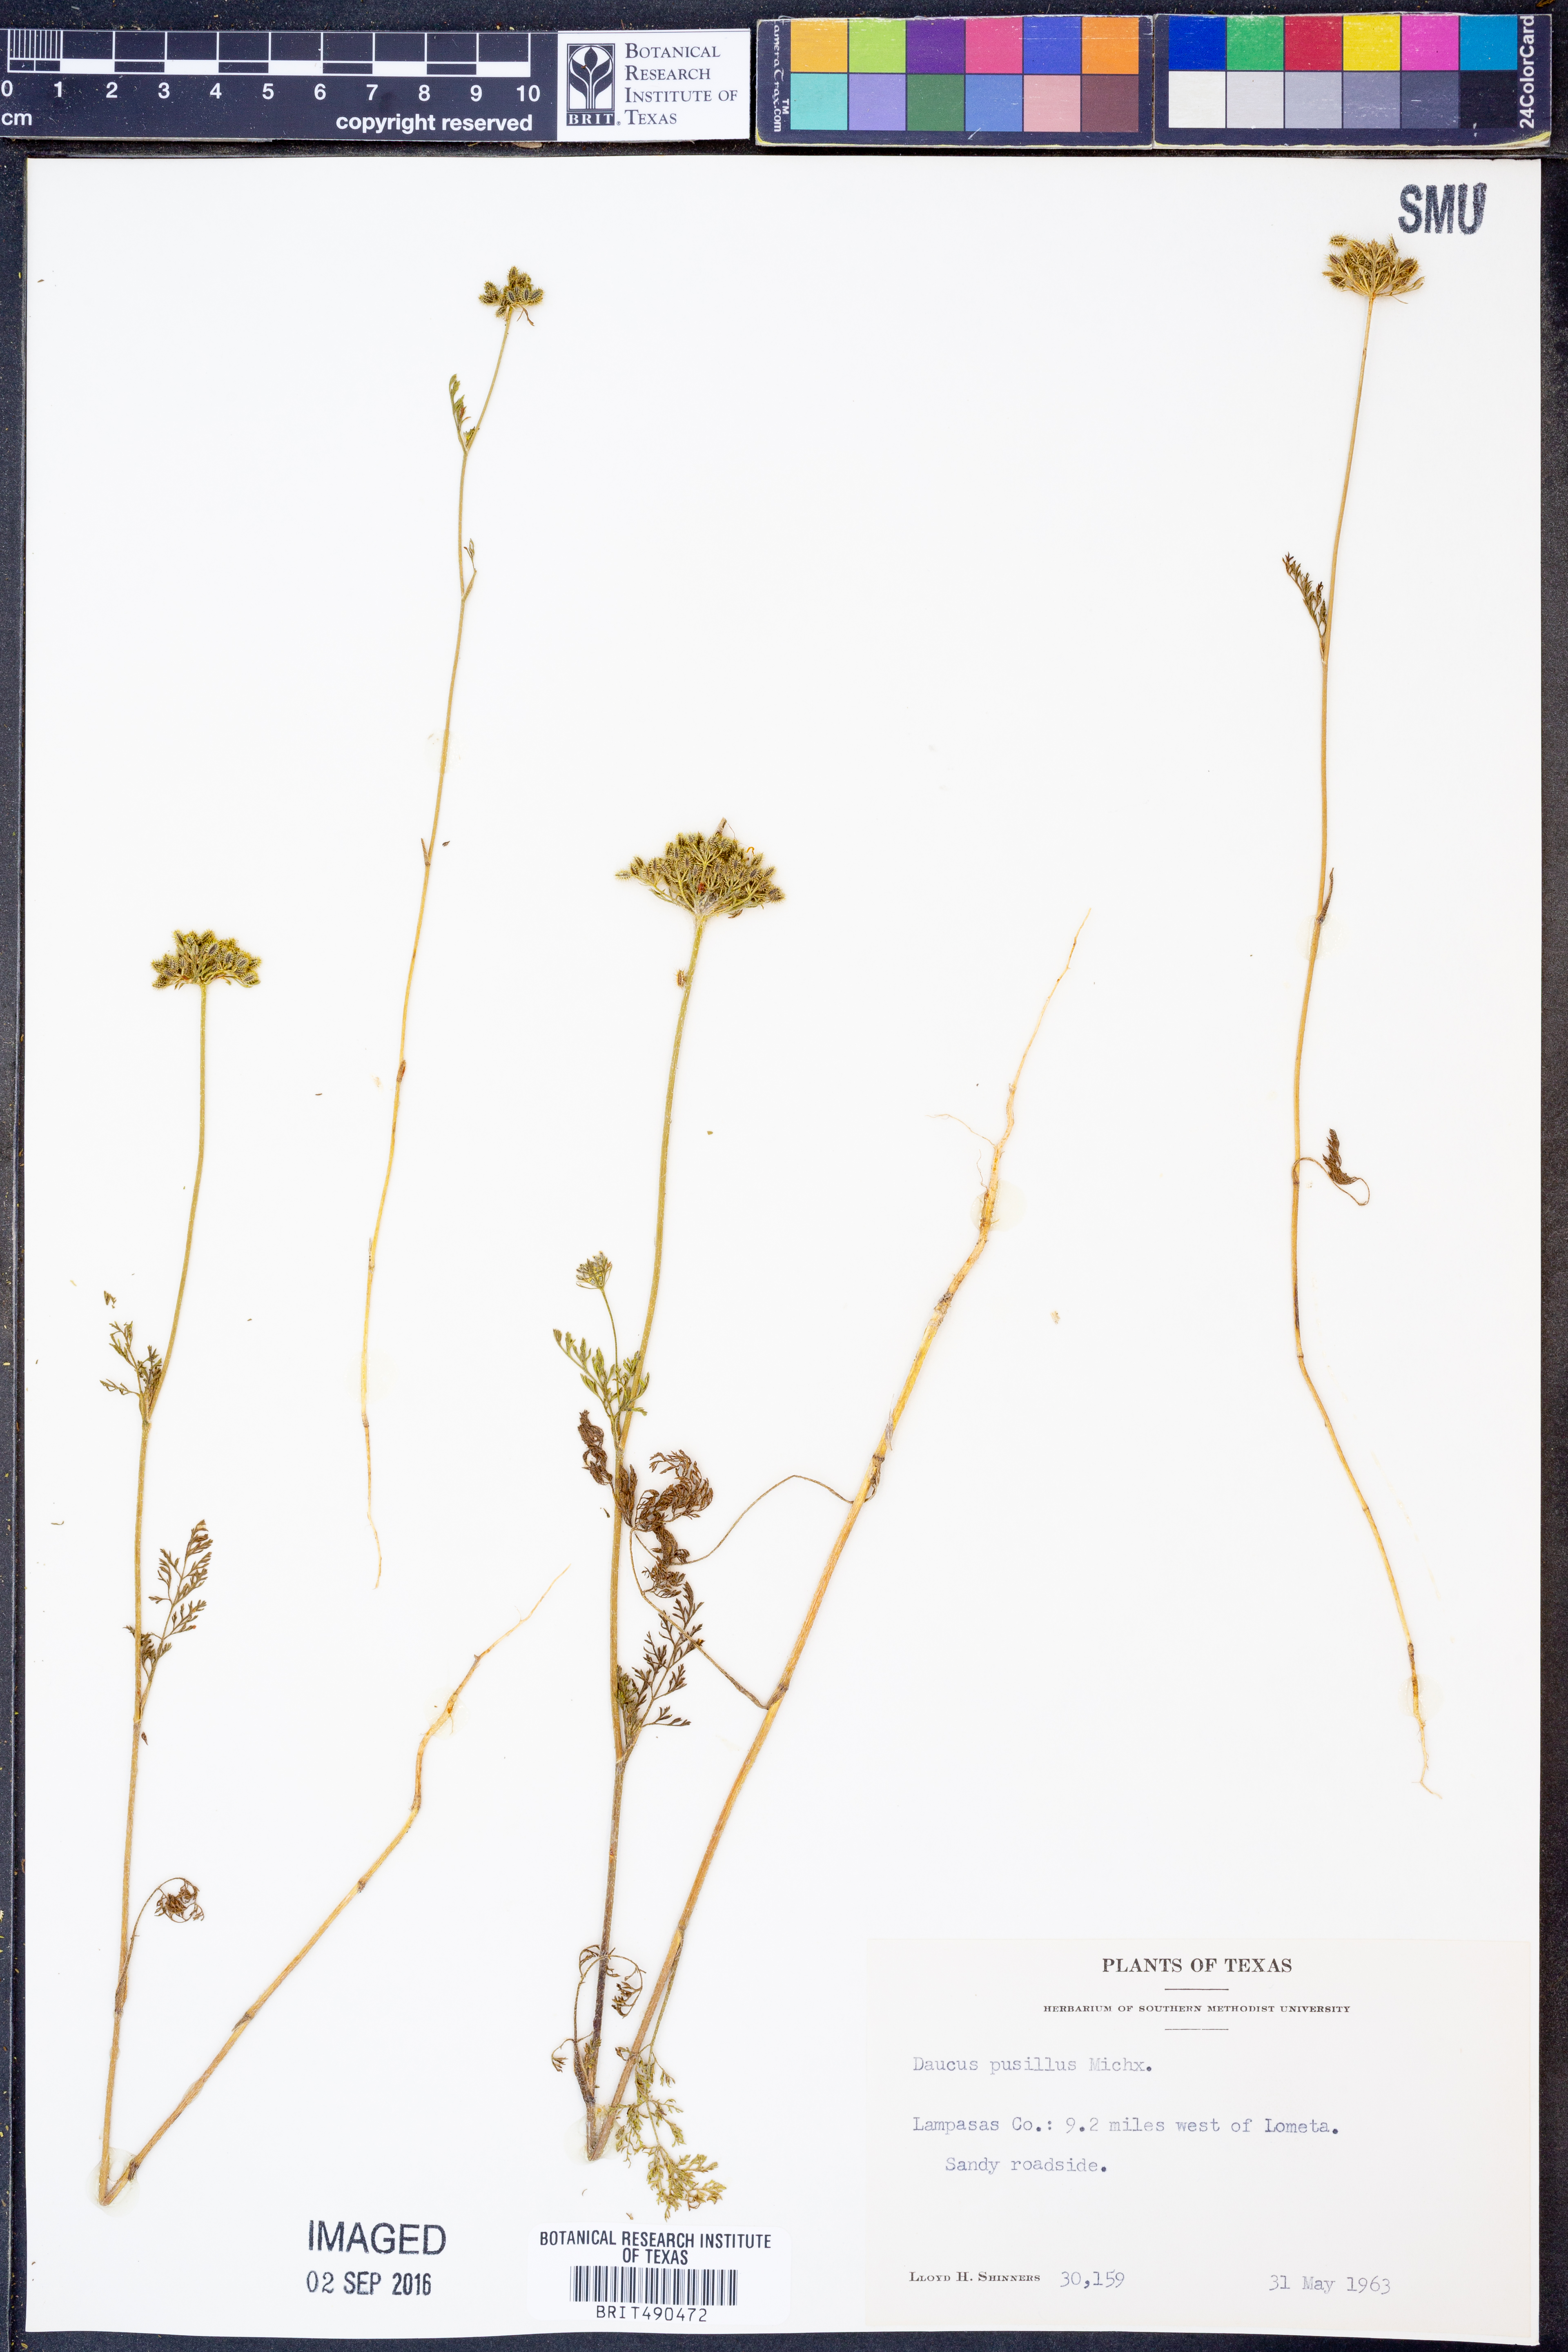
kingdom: Plantae
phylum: Tracheophyta
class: Magnoliopsida
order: Apiales
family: Apiaceae
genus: Daucus
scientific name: Daucus pusillus
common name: Southwest wild carrot
